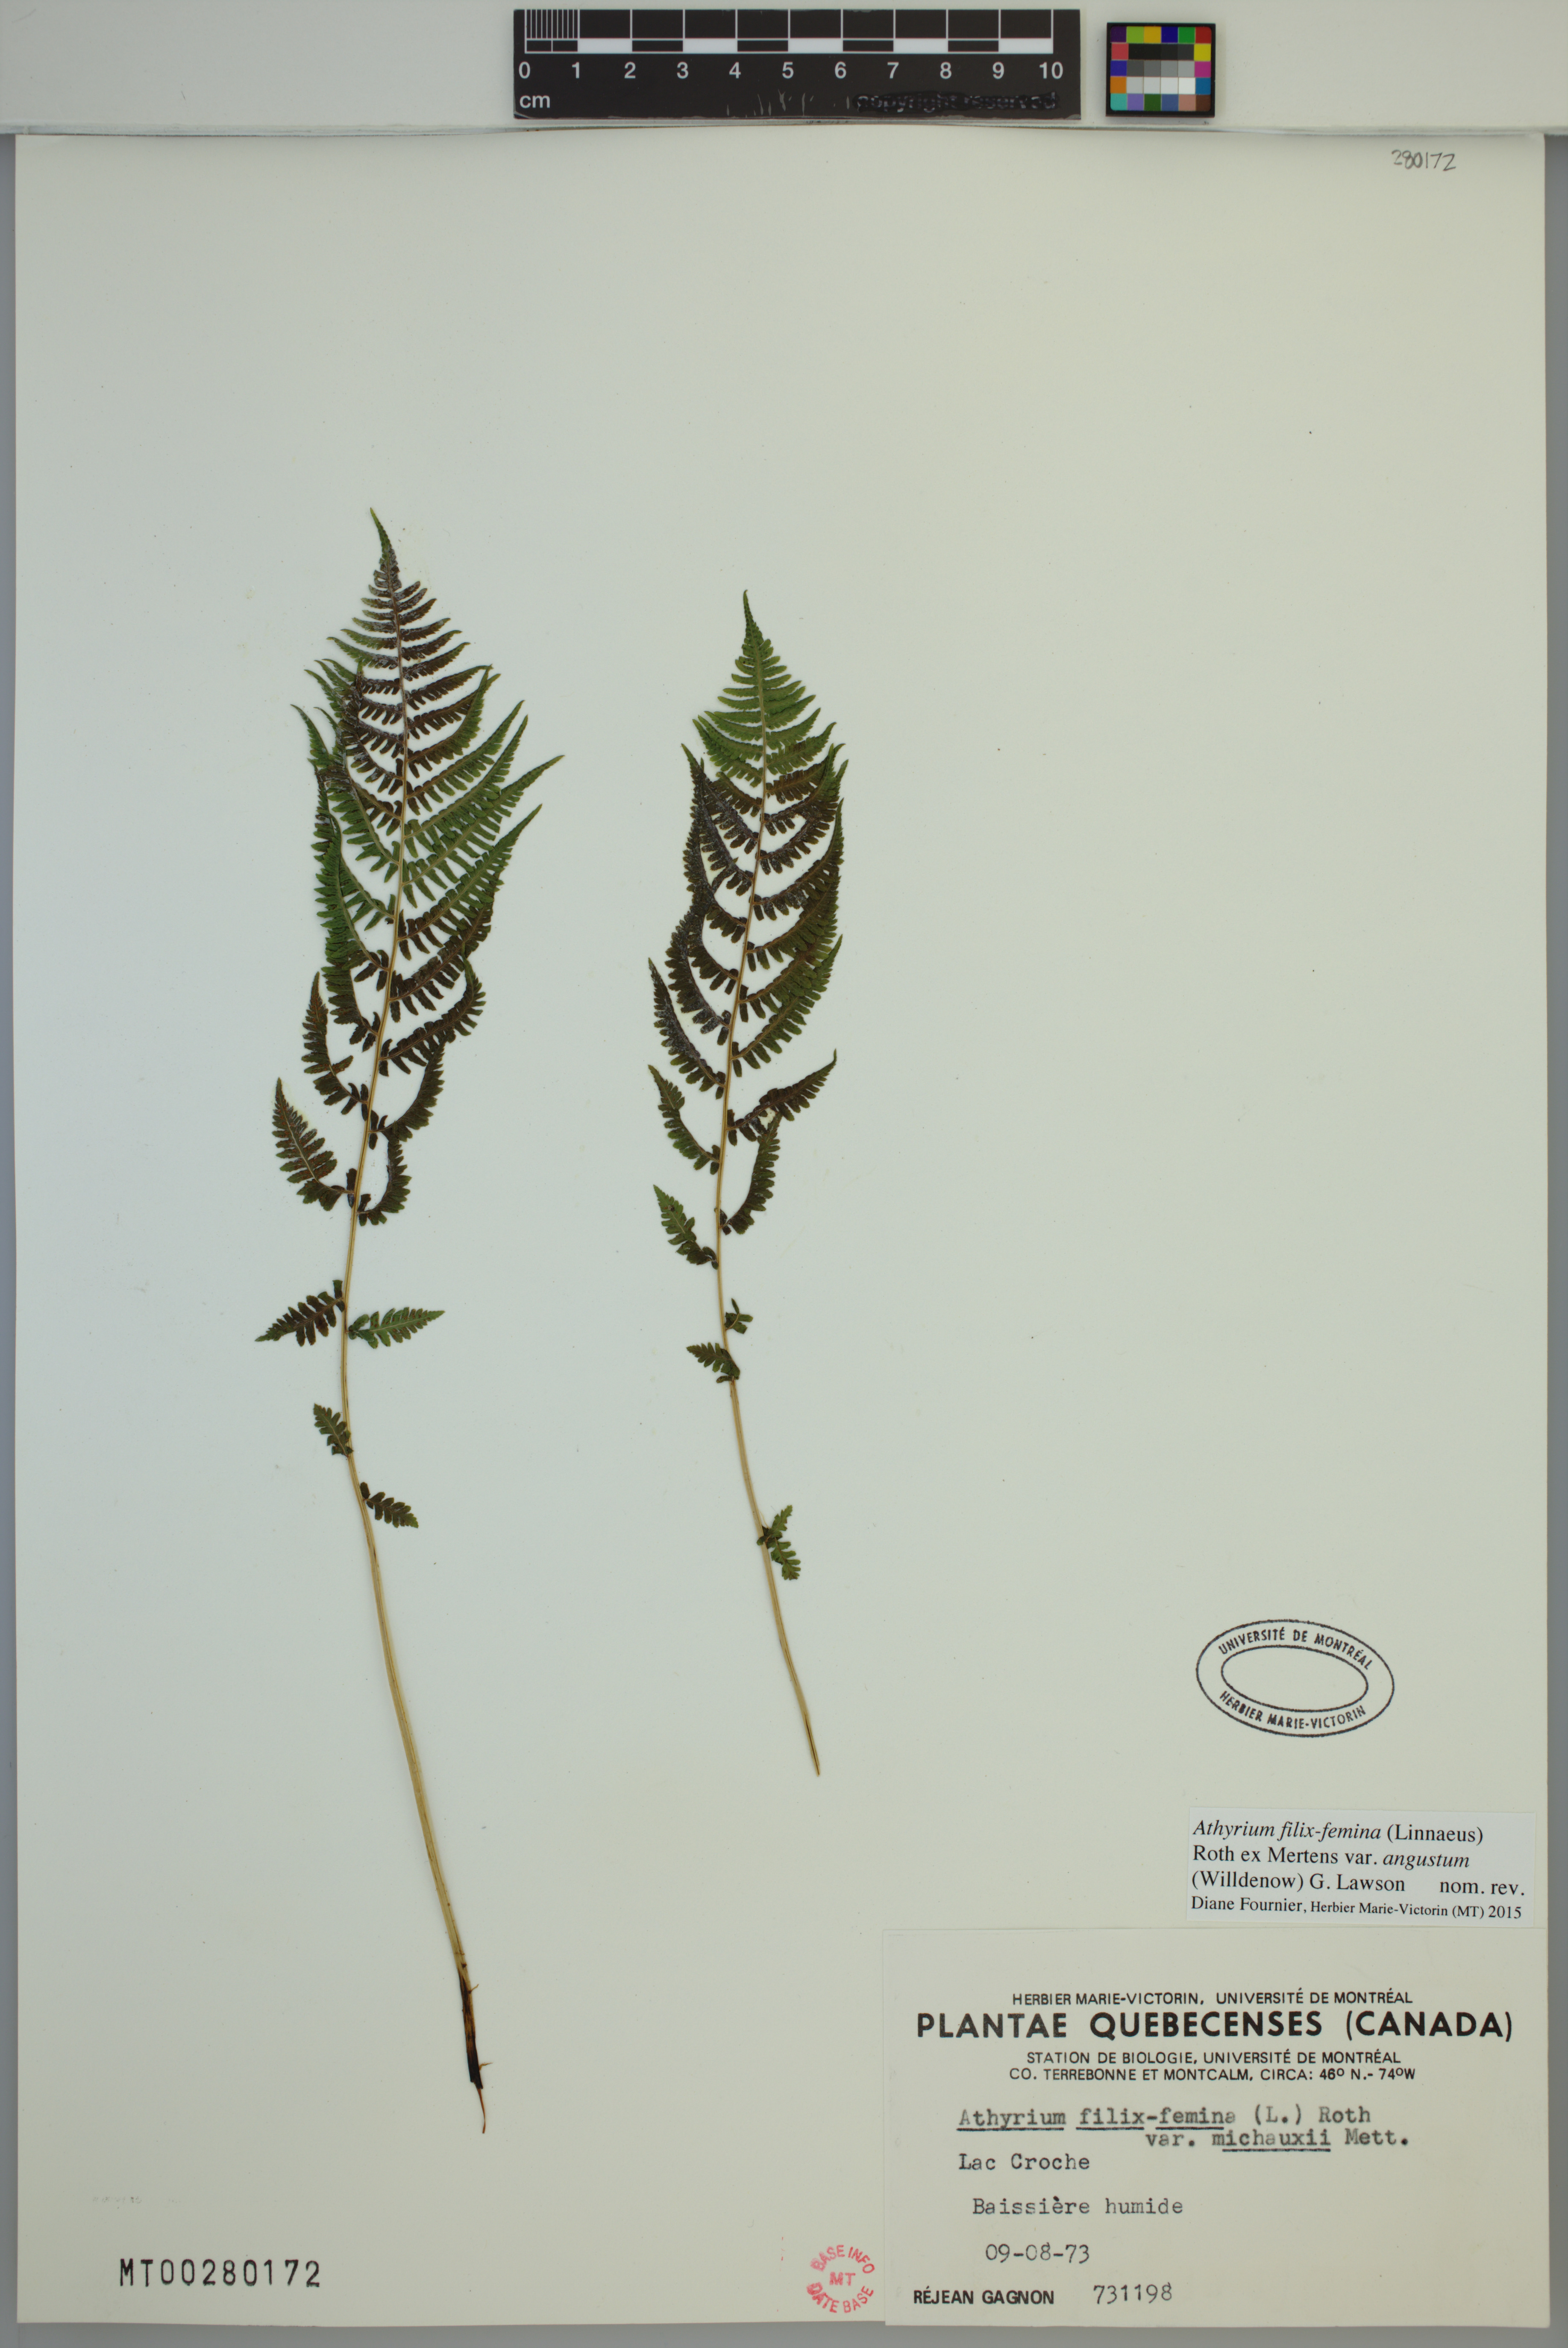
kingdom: Plantae
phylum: Tracheophyta
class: Polypodiopsida
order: Polypodiales
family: Athyriaceae
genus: Athyrium
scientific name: Athyrium angustum
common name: Northern lady fern
